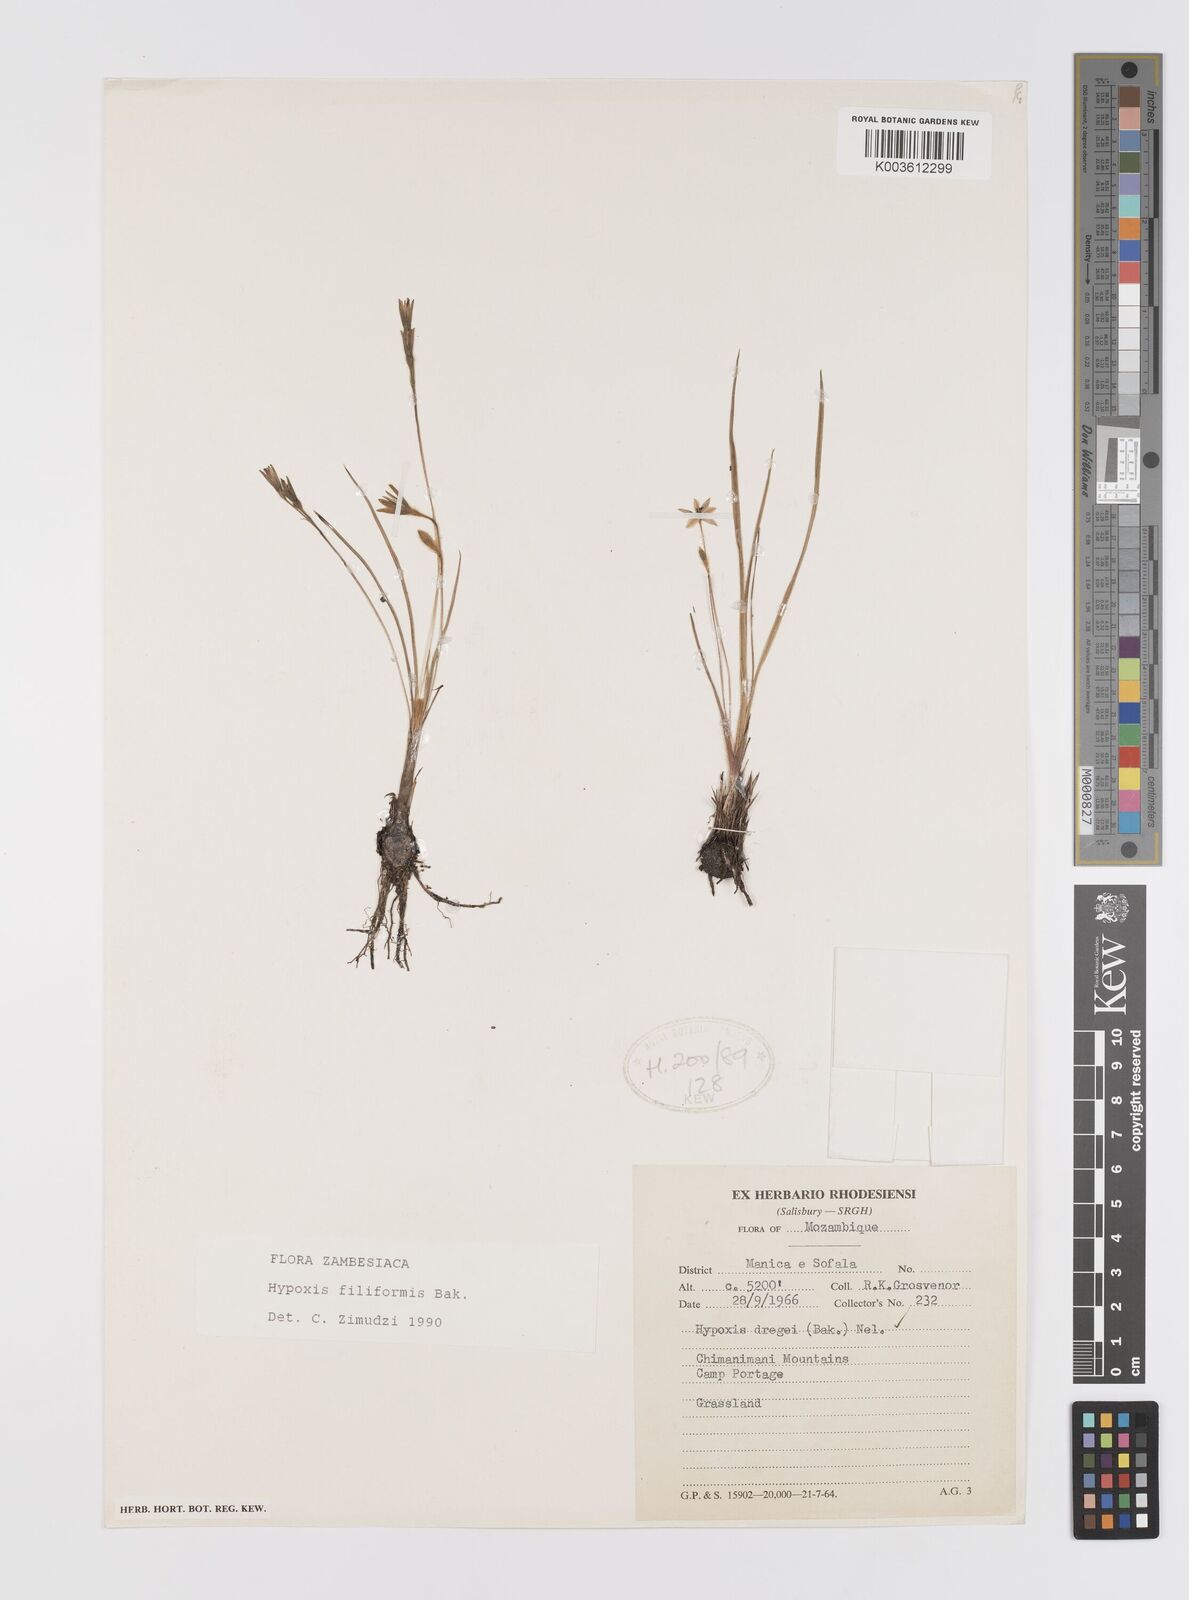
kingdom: Plantae
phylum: Tracheophyta
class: Liliopsida
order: Asparagales
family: Hypoxidaceae
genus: Hypoxis
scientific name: Hypoxis filiformis
